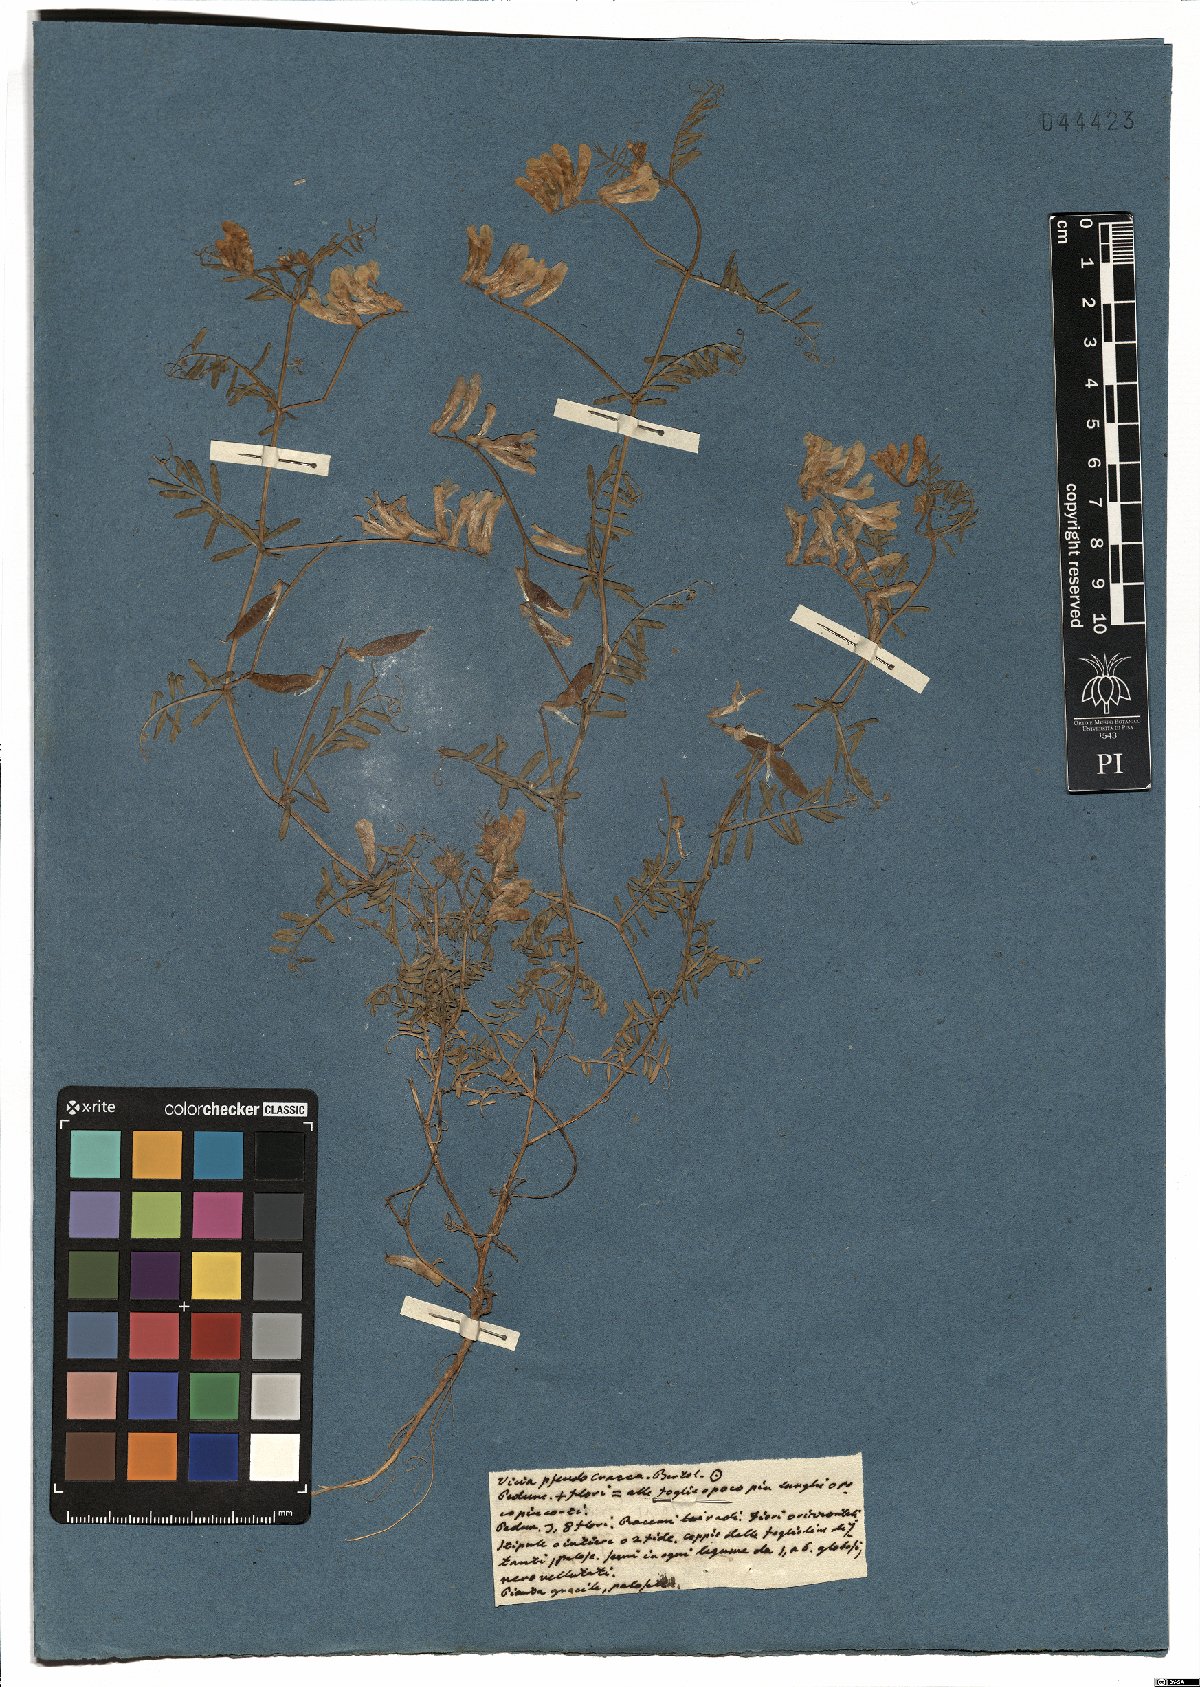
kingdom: Plantae
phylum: Tracheophyta
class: Magnoliopsida
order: Fabales
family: Fabaceae
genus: Vicia
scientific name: Vicia villosa
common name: Fodder vetch
